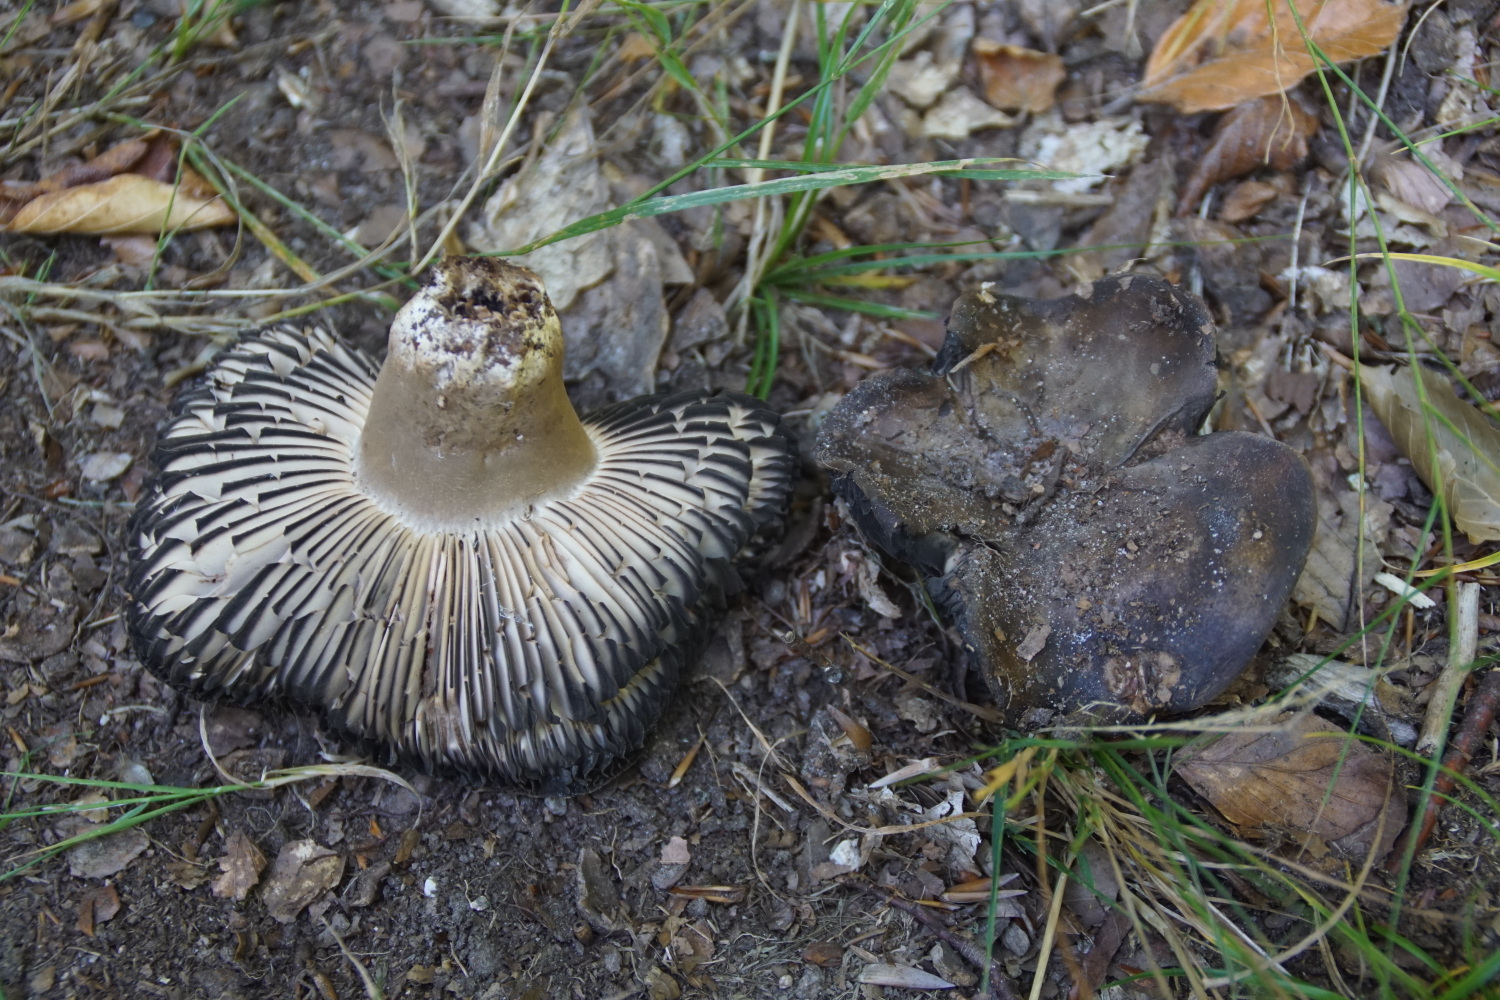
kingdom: Fungi
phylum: Basidiomycota
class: Agaricomycetes
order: Russulales
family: Russulaceae
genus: Russula
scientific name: Russula adusta
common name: sværtende skørhat
